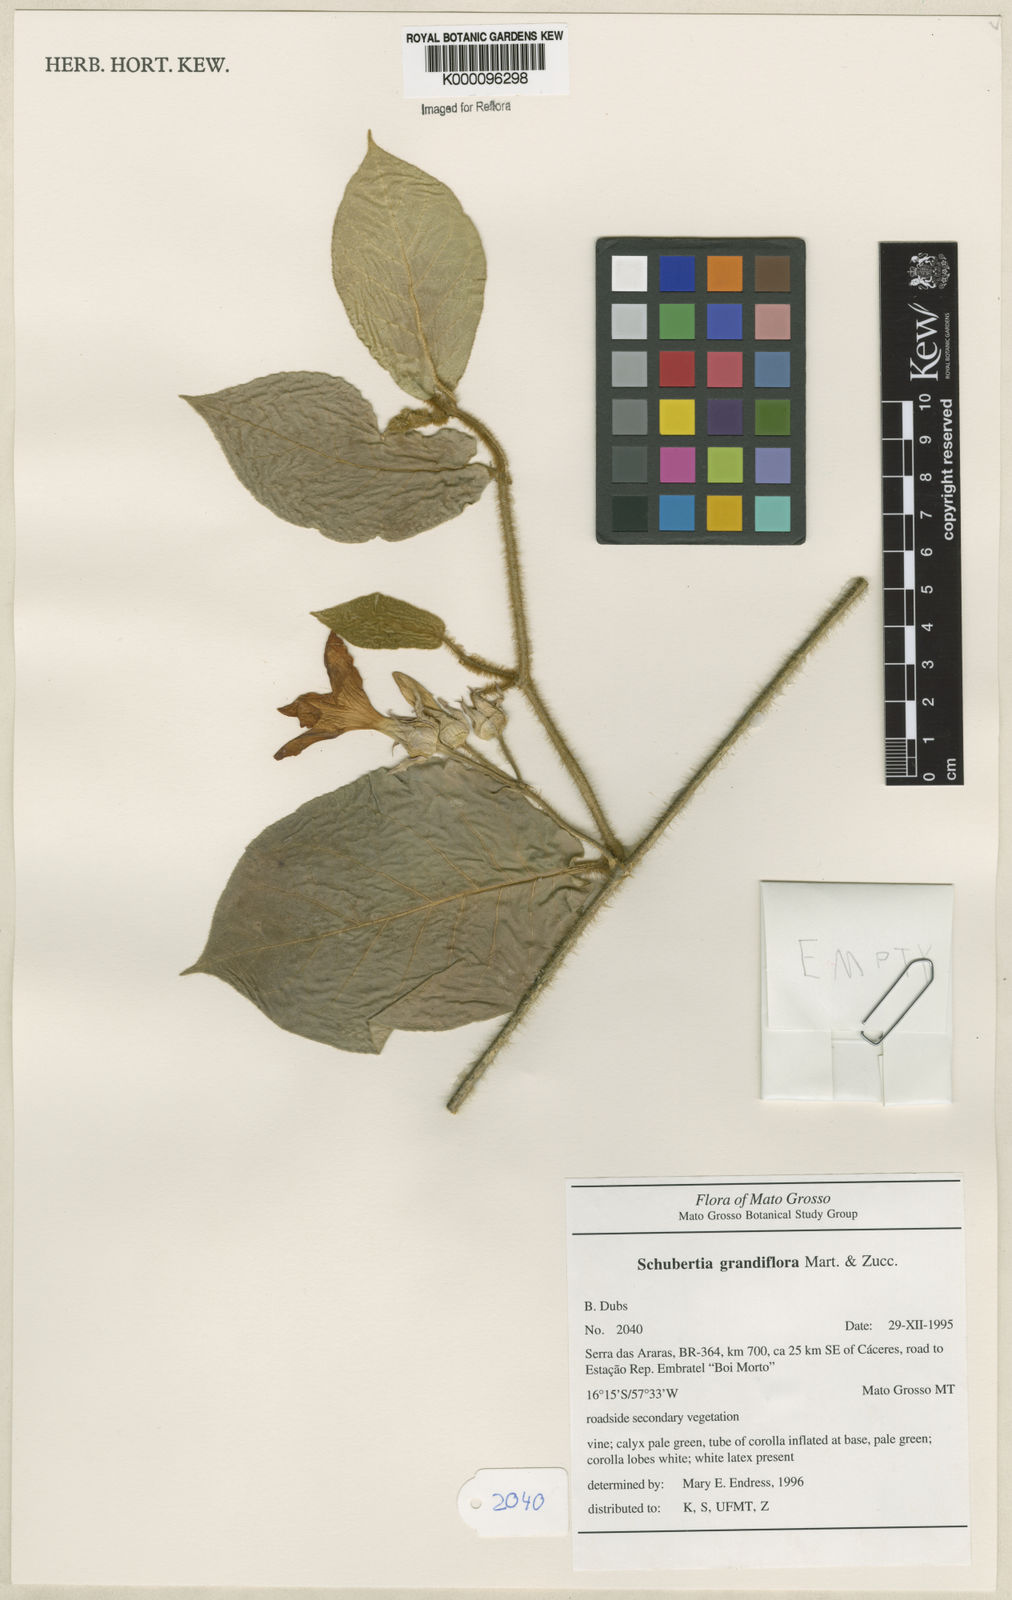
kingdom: Plantae
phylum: Tracheophyta
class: Magnoliopsida
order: Gentianales
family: Apocynaceae
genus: Macroscepis
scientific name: Macroscepis grandiflora
